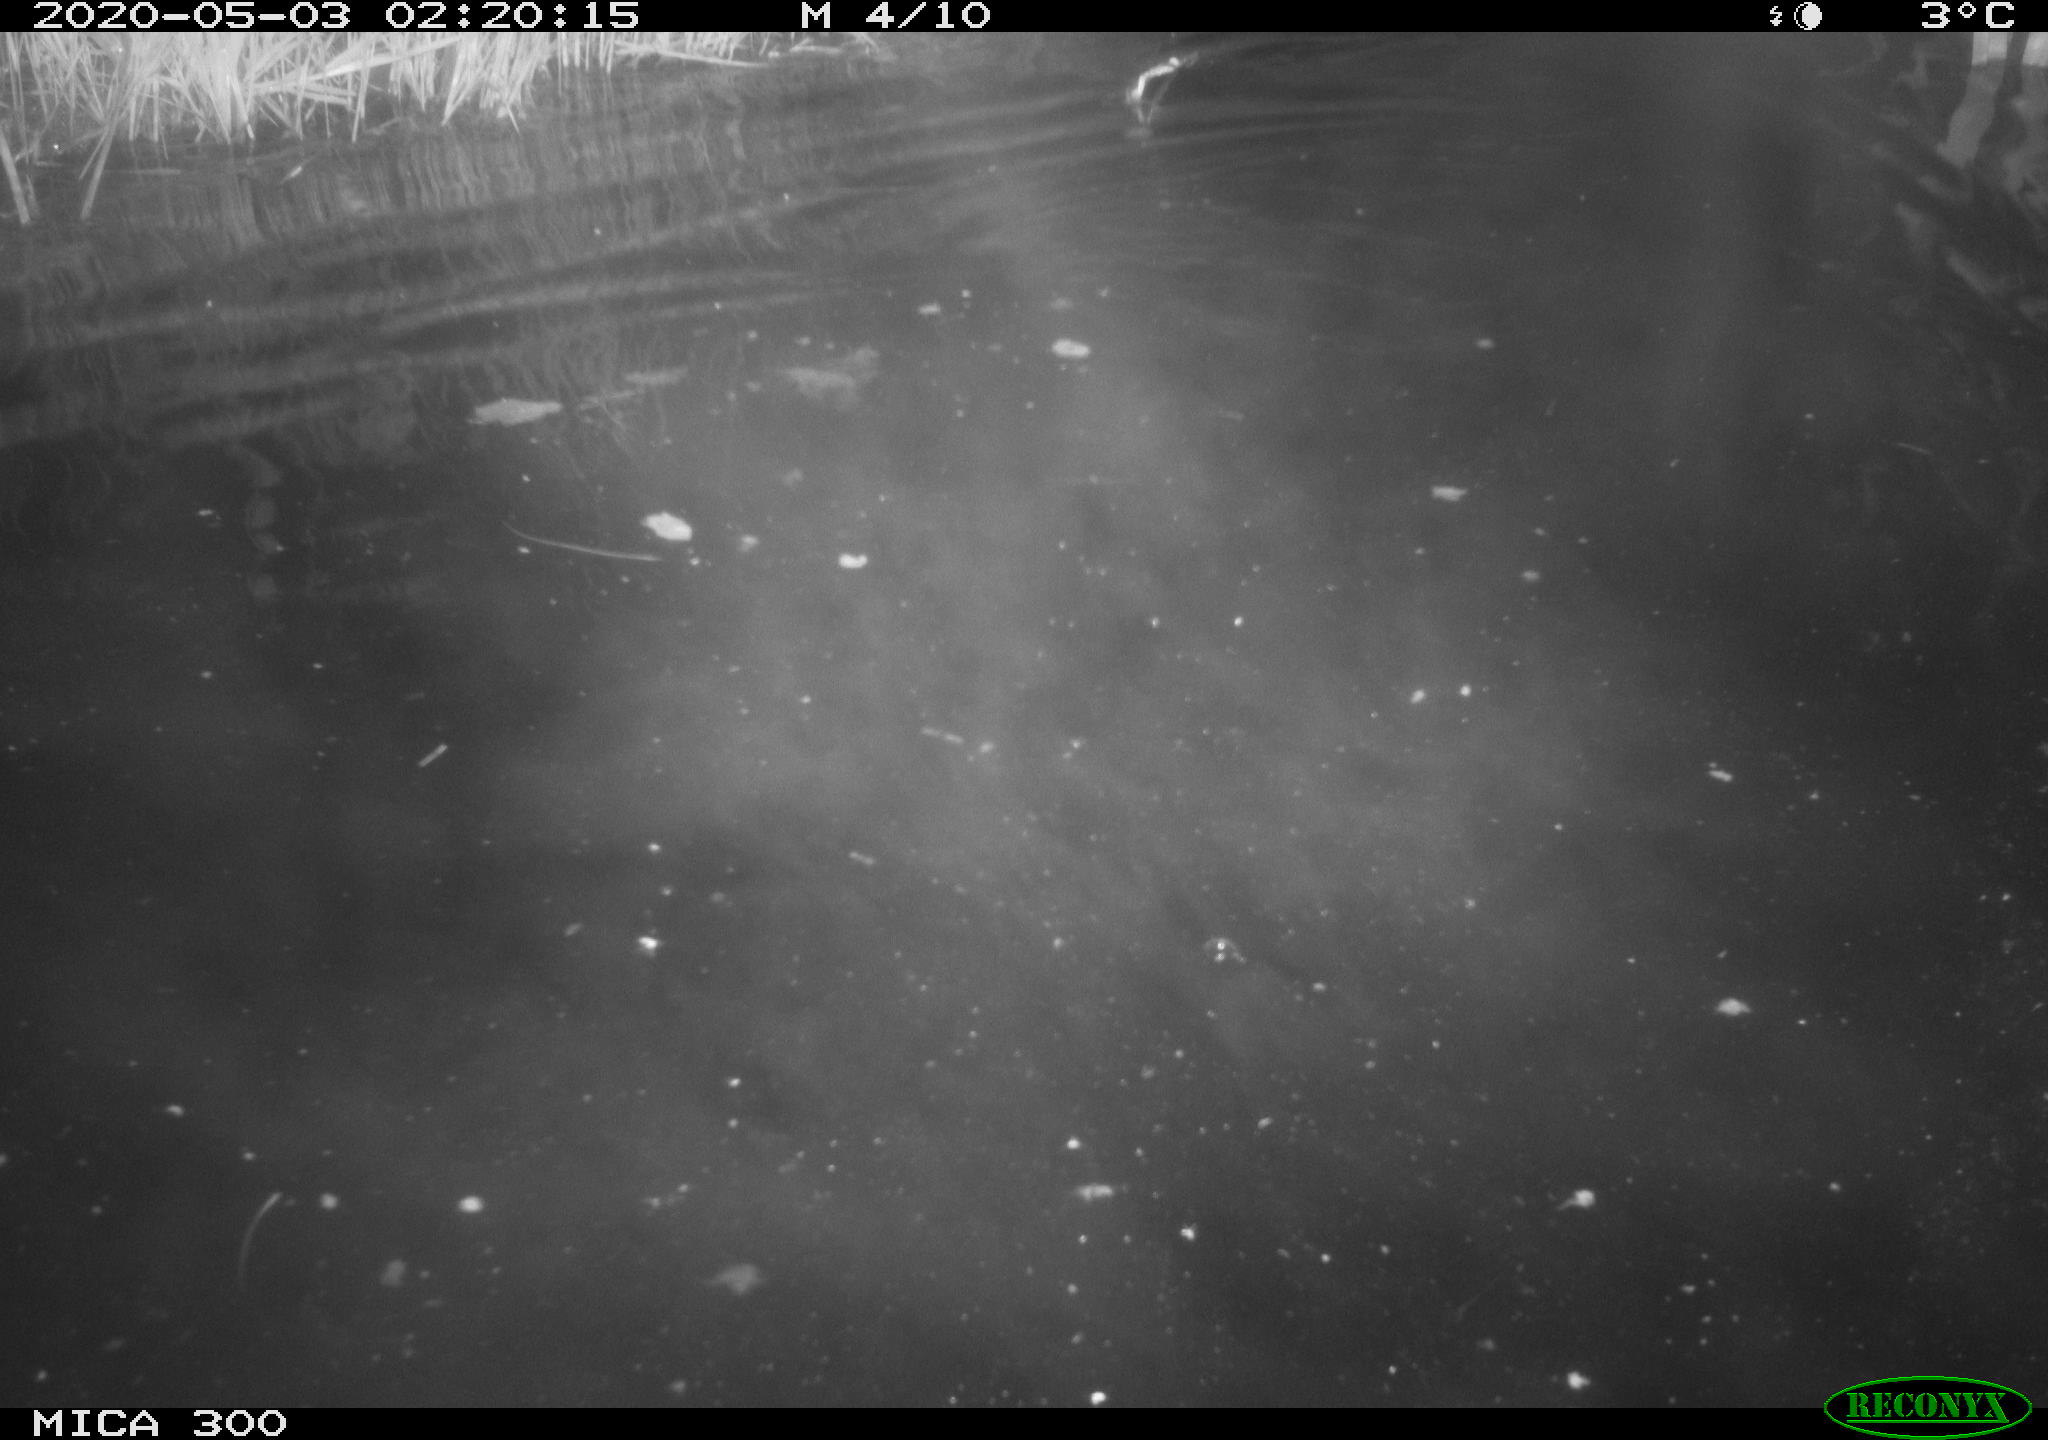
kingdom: Animalia
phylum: Chordata
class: Mammalia
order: Rodentia
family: Castoridae
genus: Castor
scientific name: Castor fiber
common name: Eurasian beaver
